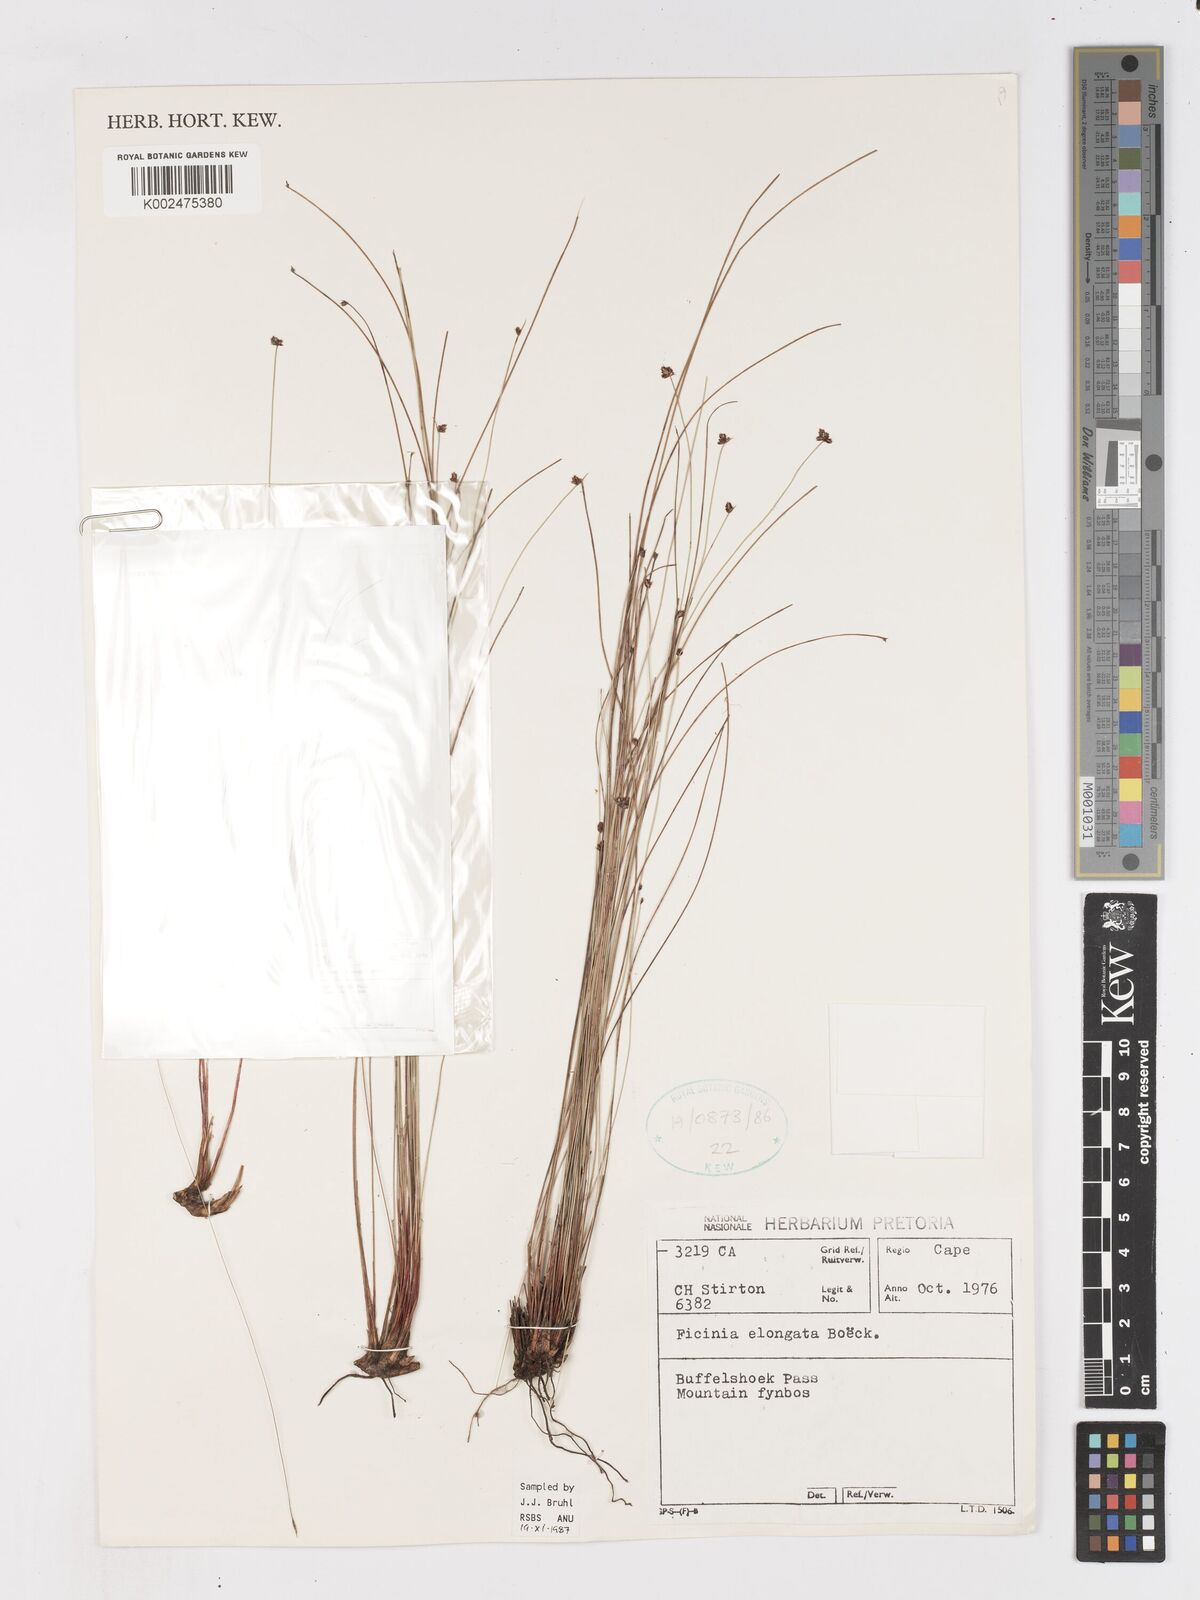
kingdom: Plantae
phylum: Tracheophyta
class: Liliopsida
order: Poales
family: Cyperaceae
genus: Ficinia
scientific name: Ficinia acuminata
